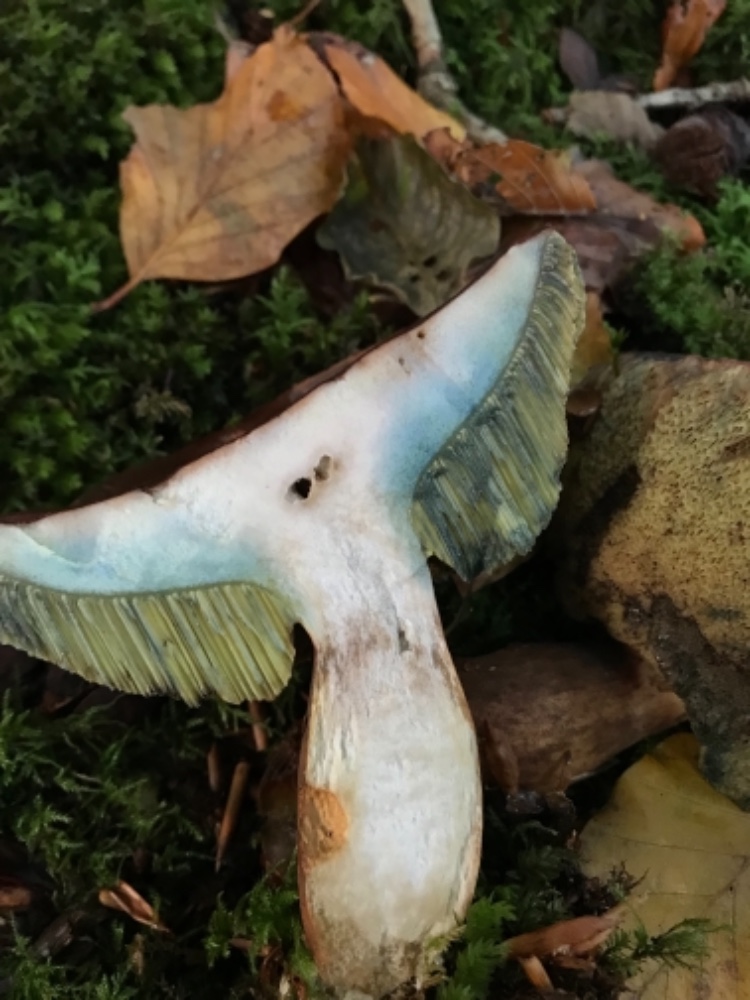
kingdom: Fungi
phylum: Basidiomycota
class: Agaricomycetes
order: Boletales
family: Boletaceae
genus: Imleria
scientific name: Imleria badia
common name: brunstokket rørhat
